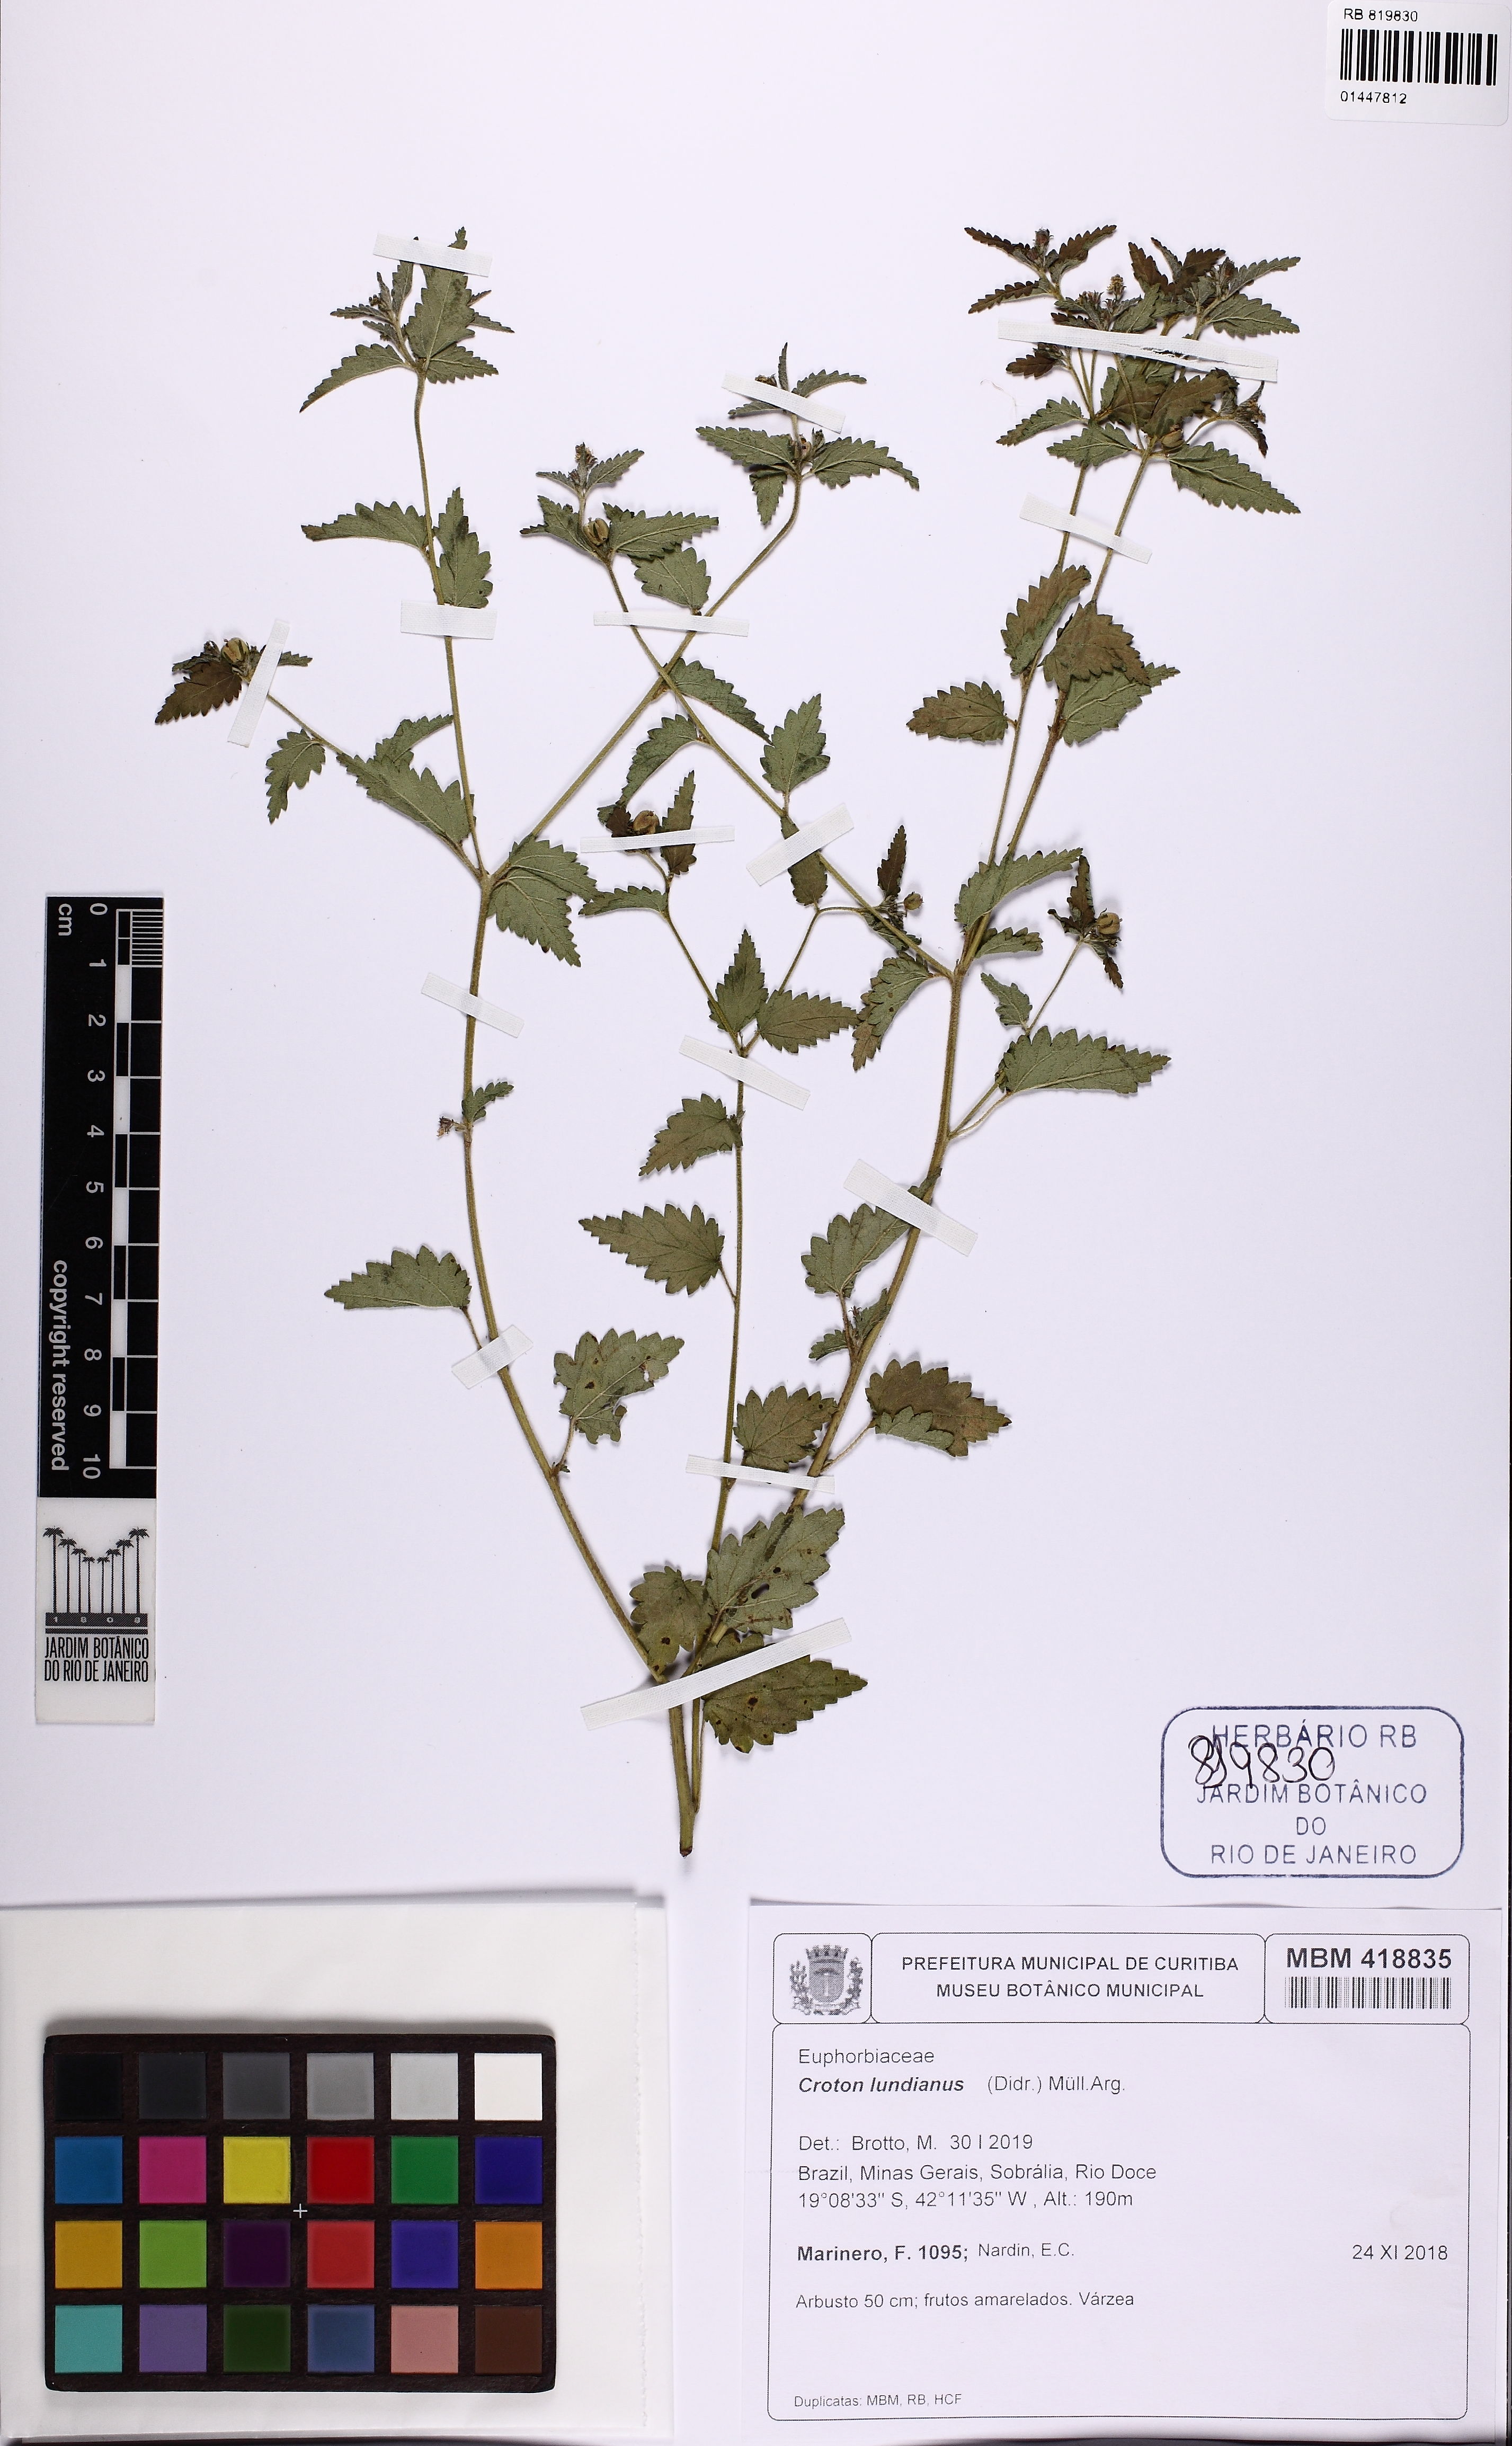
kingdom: Plantae
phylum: Tracheophyta
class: Magnoliopsida
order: Malpighiales
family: Euphorbiaceae
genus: Croton
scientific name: Croton lundianus
